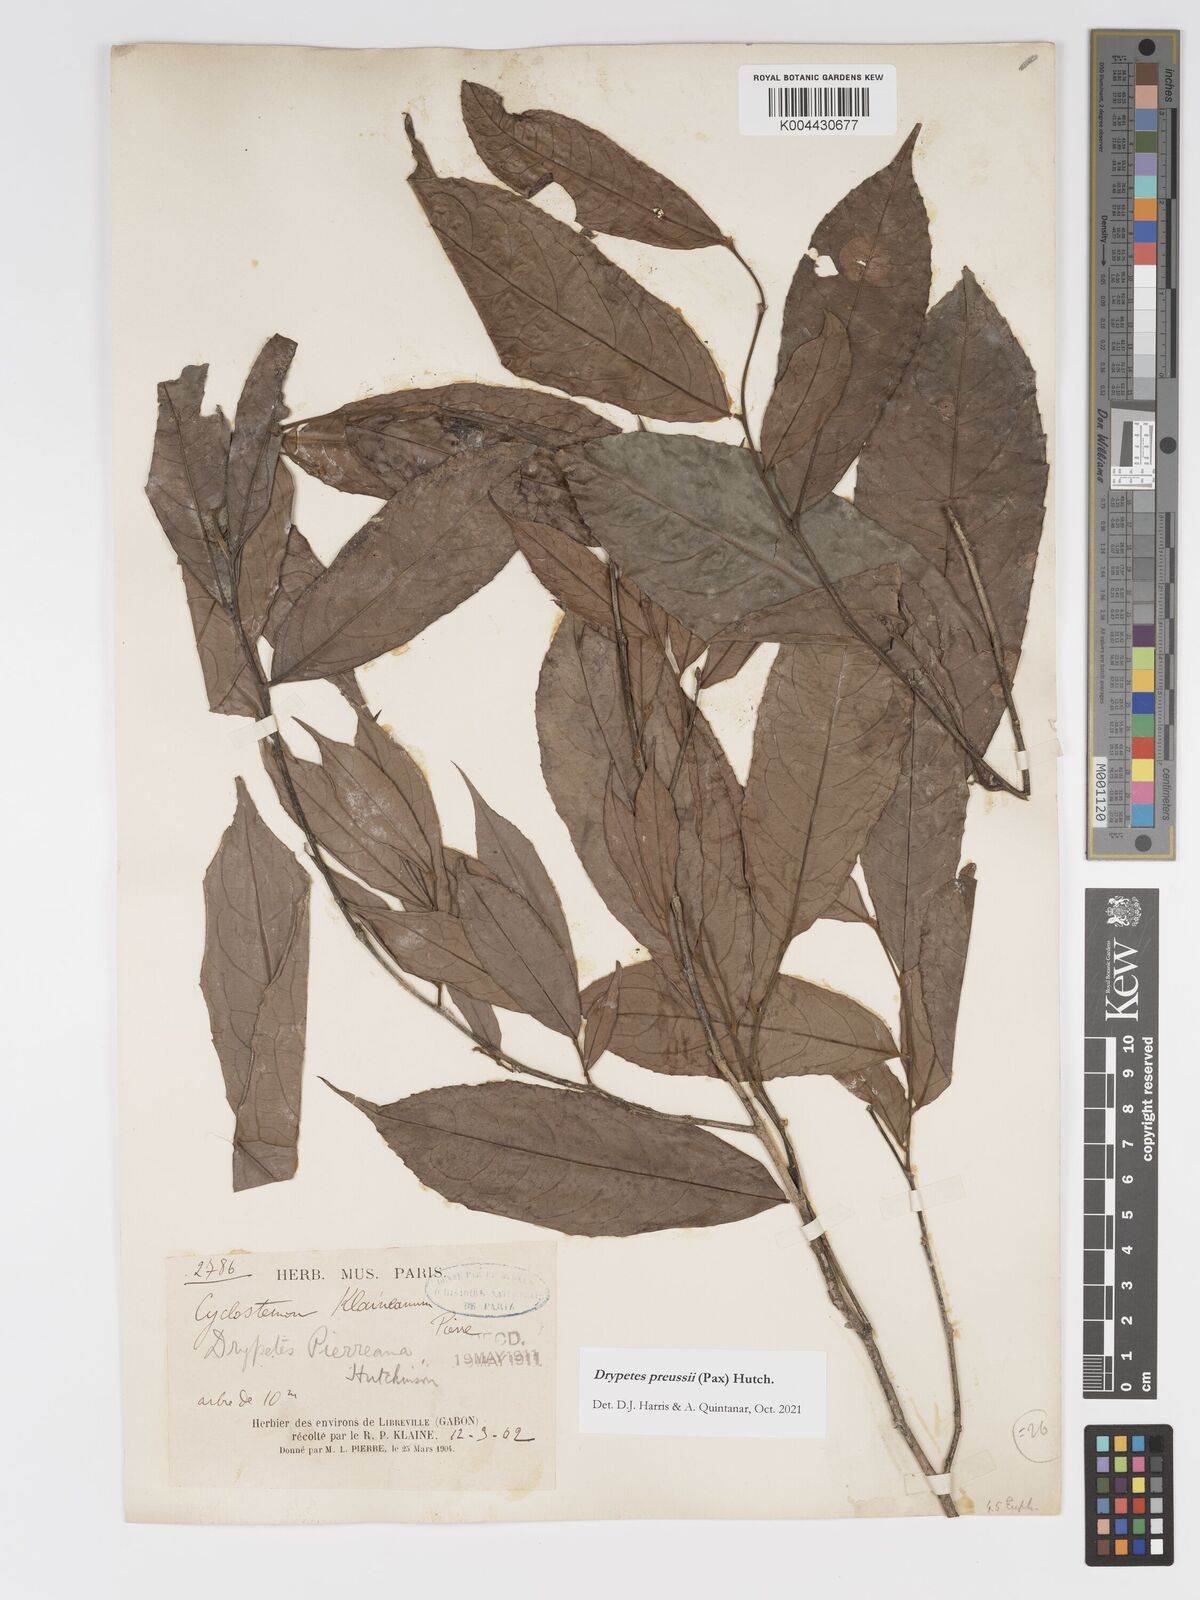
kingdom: Plantae
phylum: Tracheophyta
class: Magnoliopsida
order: Malpighiales
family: Putranjivaceae
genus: Drypetes
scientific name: Drypetes preussii
